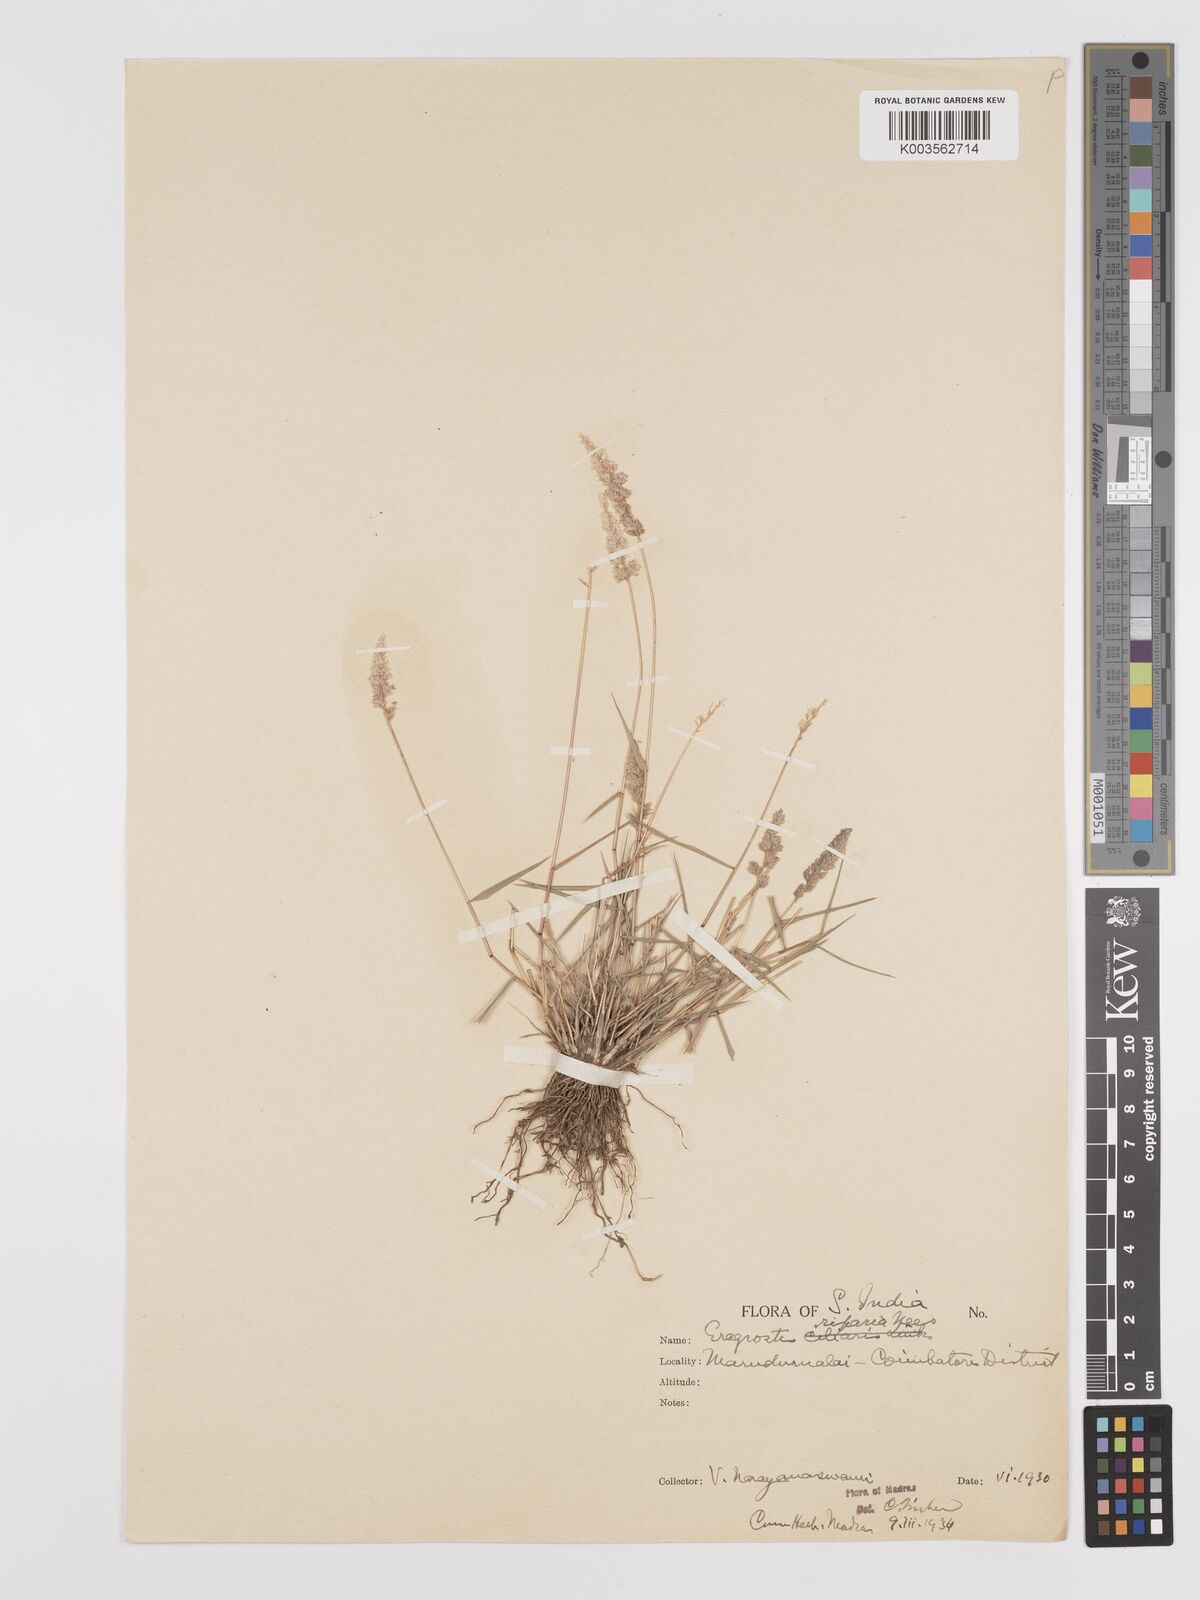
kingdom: Plantae
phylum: Tracheophyta
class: Liliopsida
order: Poales
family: Poaceae
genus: Eragrostis
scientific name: Eragrostis riparia
